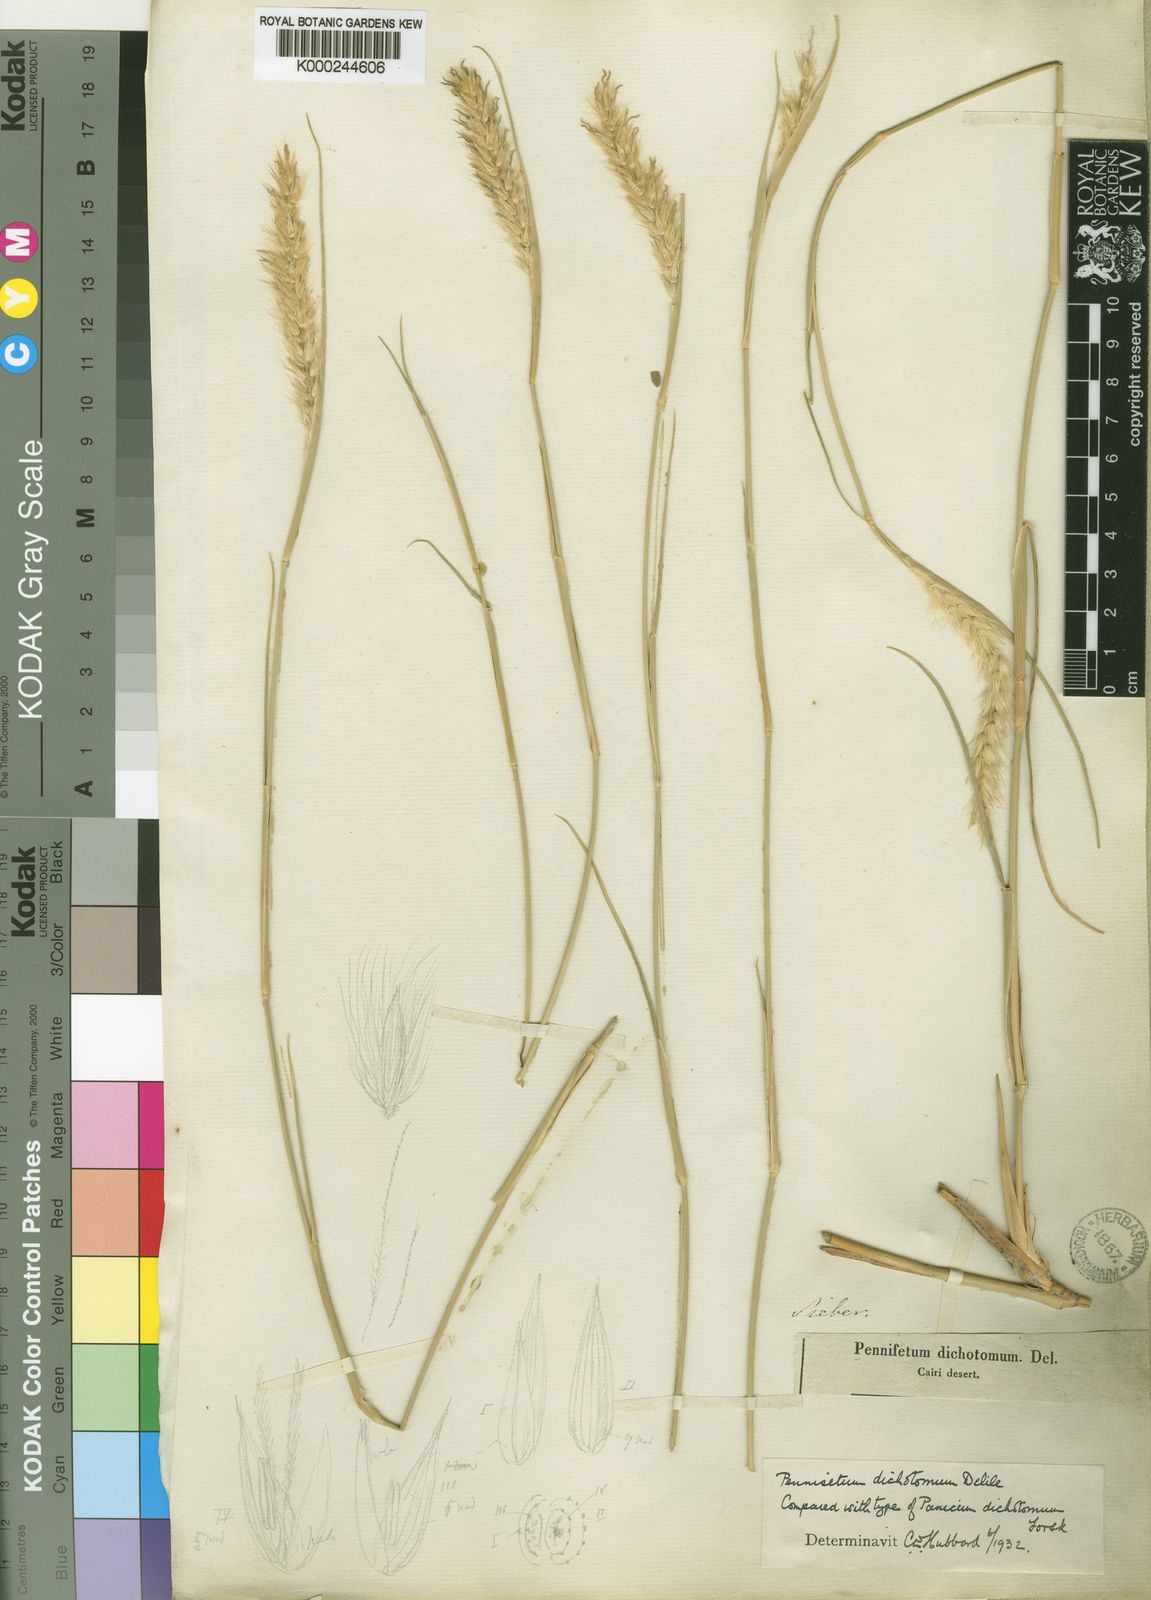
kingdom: Plantae
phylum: Tracheophyta
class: Liliopsida
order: Poales
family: Poaceae
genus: Cenchrus
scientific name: Cenchrus divisus
